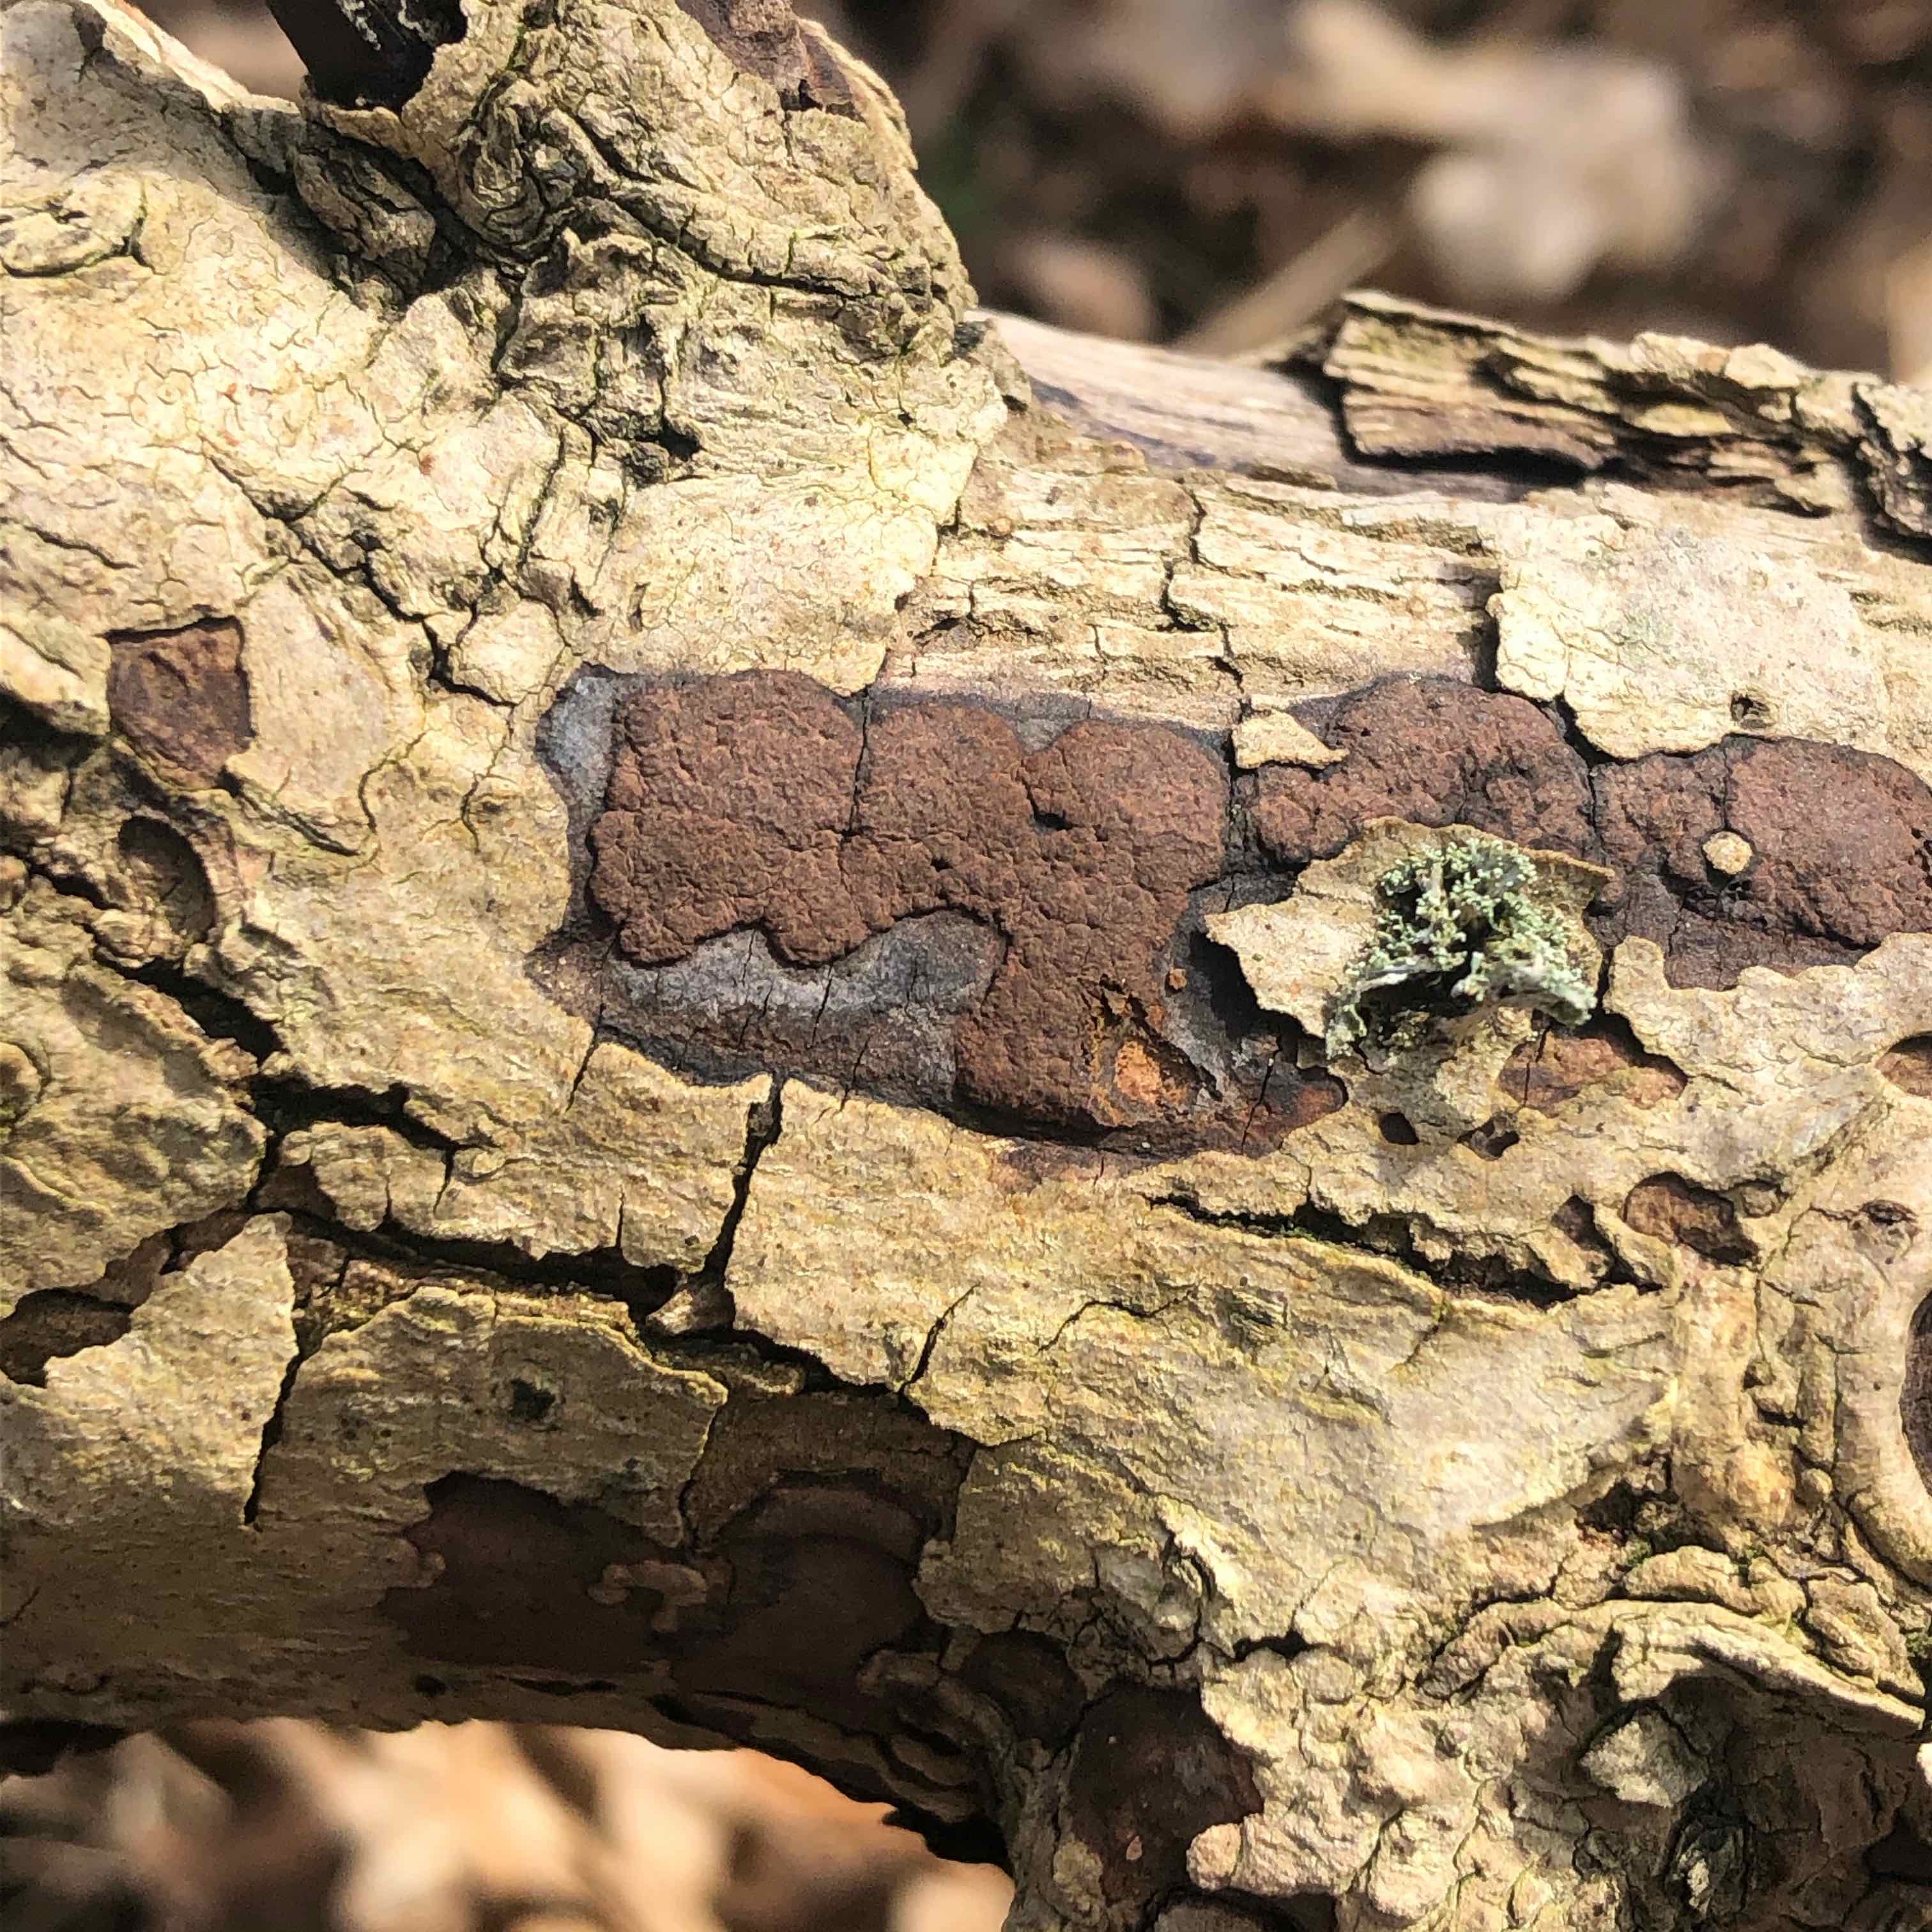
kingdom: Fungi
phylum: Ascomycota
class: Sordariomycetes
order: Xylariales
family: Hypoxylaceae
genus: Hypoxylon
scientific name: Hypoxylon petriniae
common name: nedsænket kulbær
